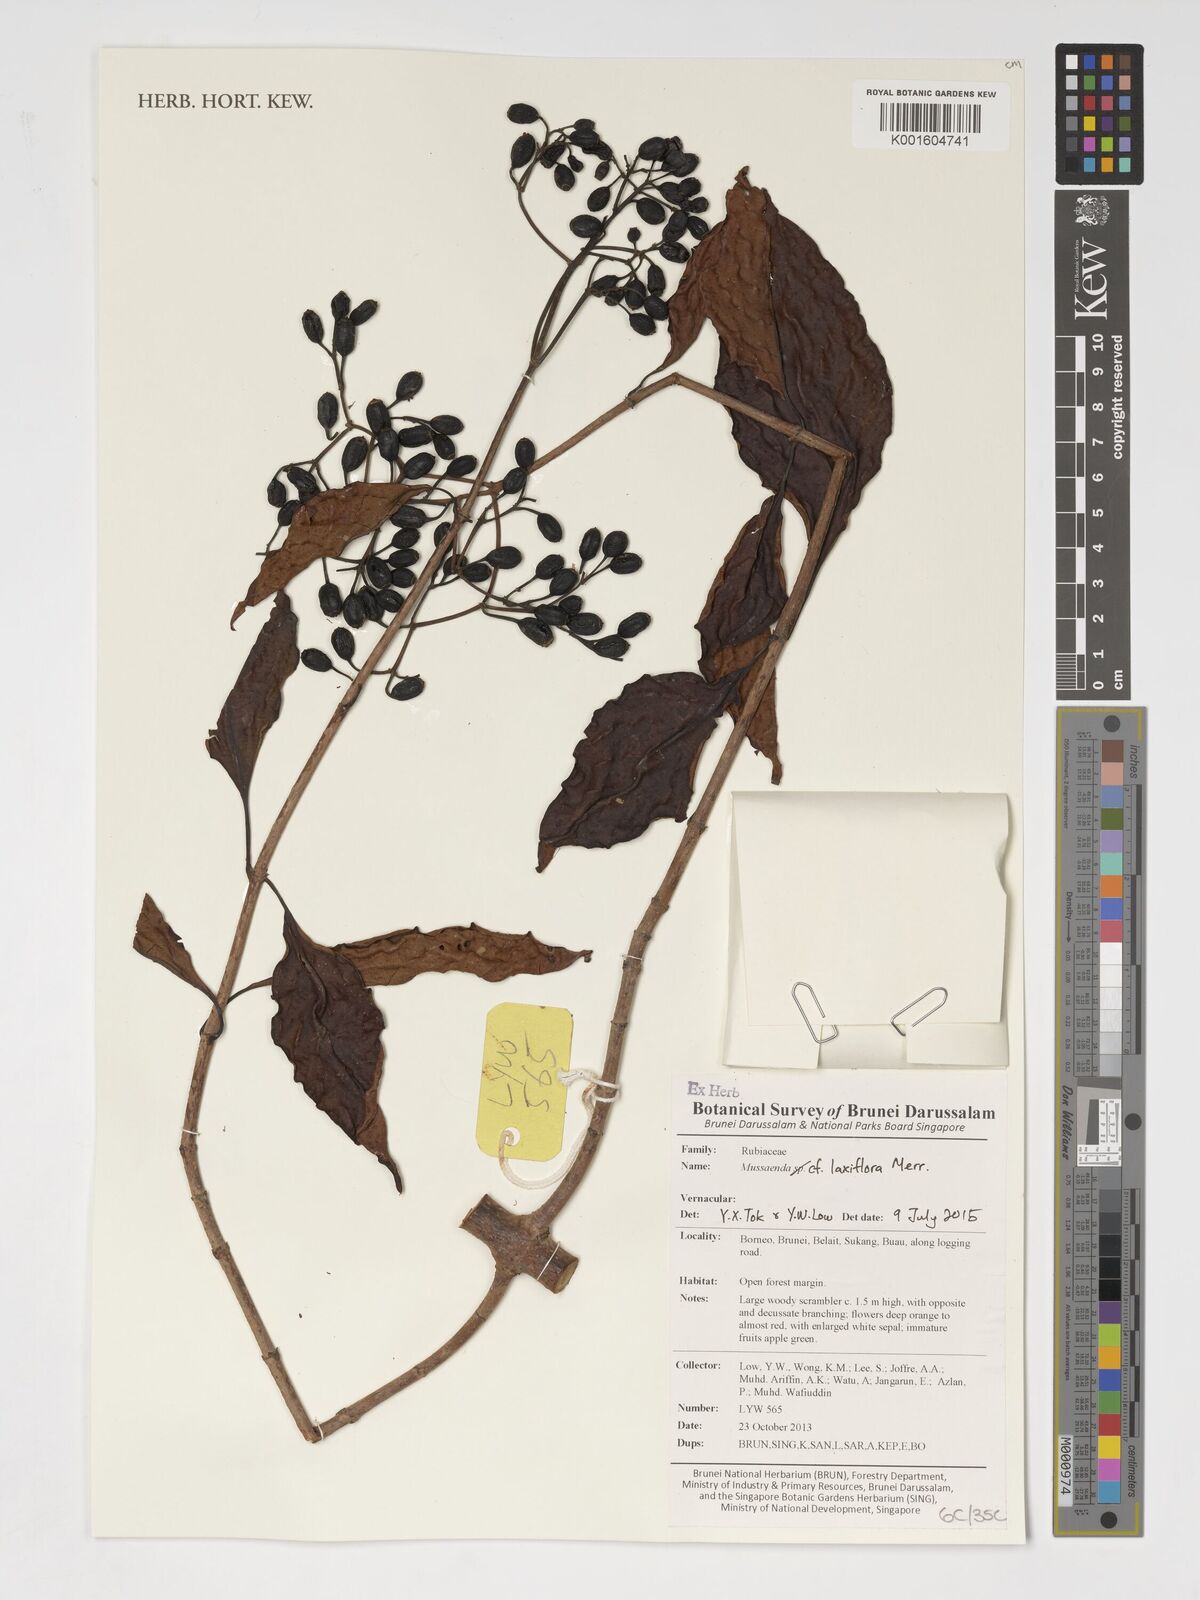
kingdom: Plantae
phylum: Tracheophyta
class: Magnoliopsida
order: Gentianales
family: Rubiaceae
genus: Mussaenda
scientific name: Mussaenda sandakana
